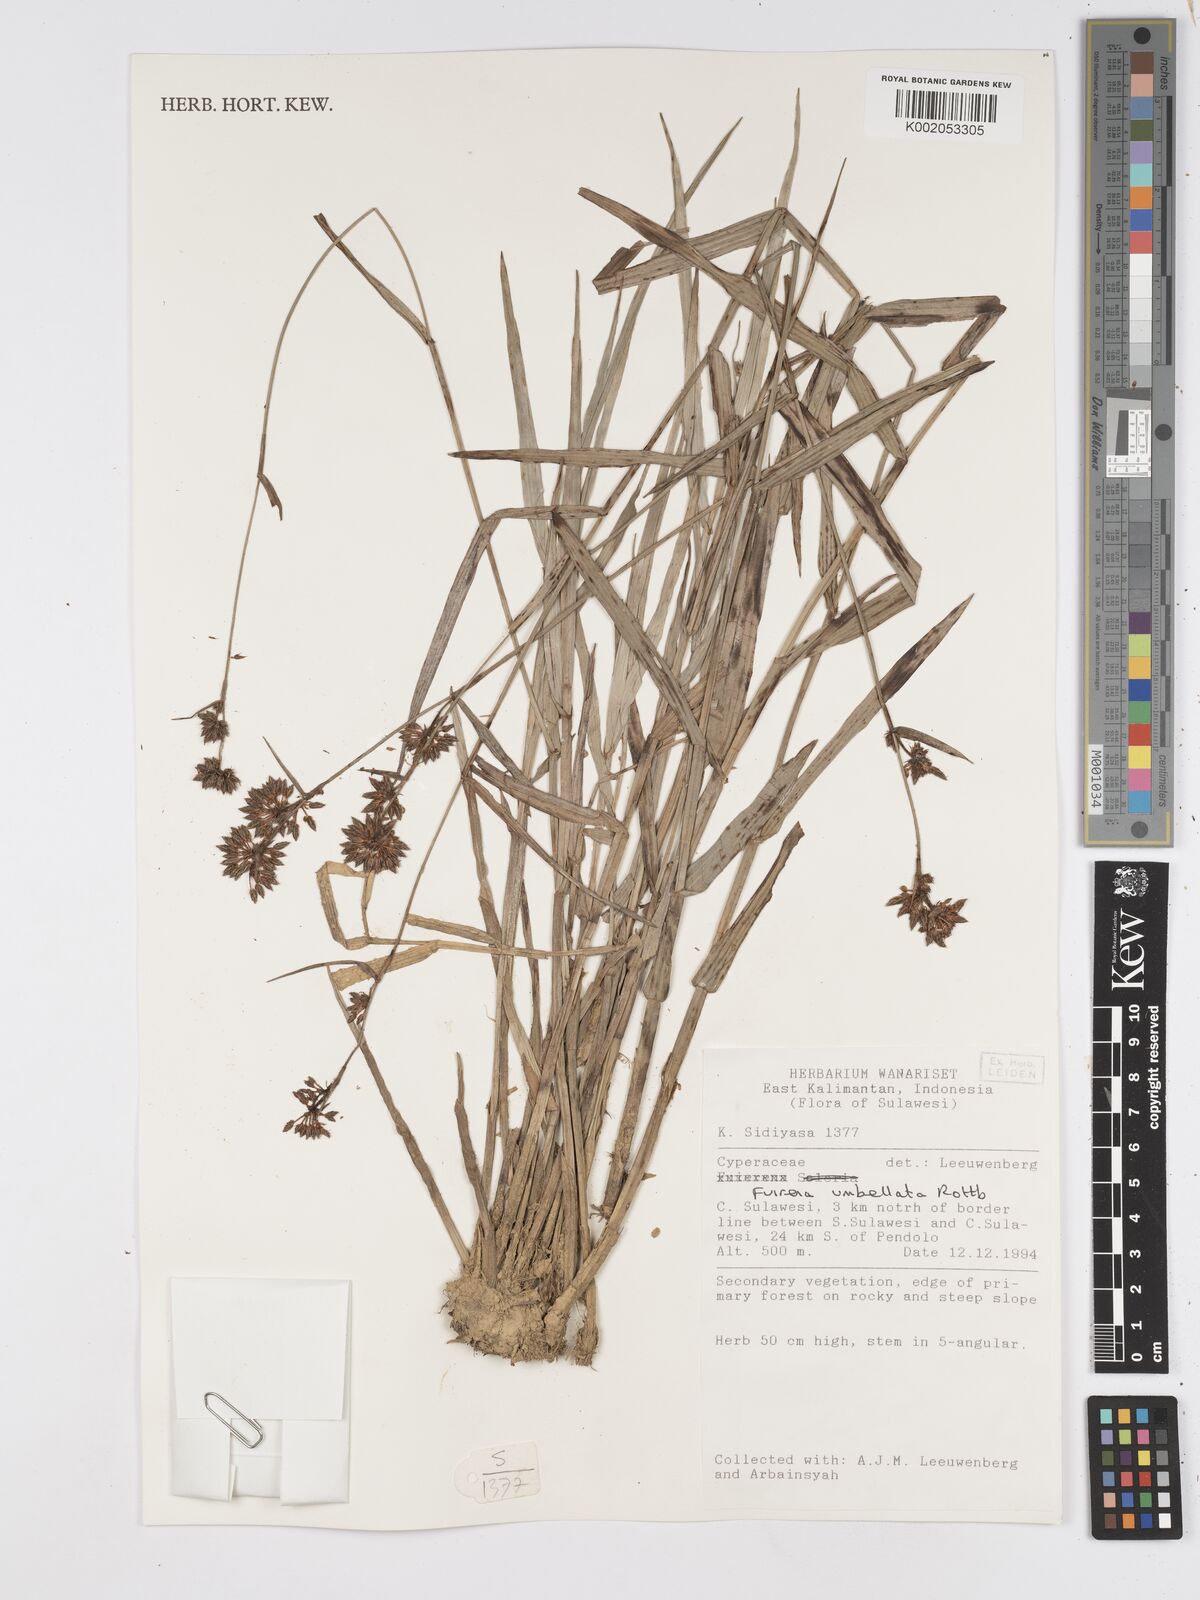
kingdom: Plantae
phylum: Tracheophyta
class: Liliopsida
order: Poales
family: Cyperaceae
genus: Fuirena
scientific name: Fuirena umbellata
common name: Yefen
